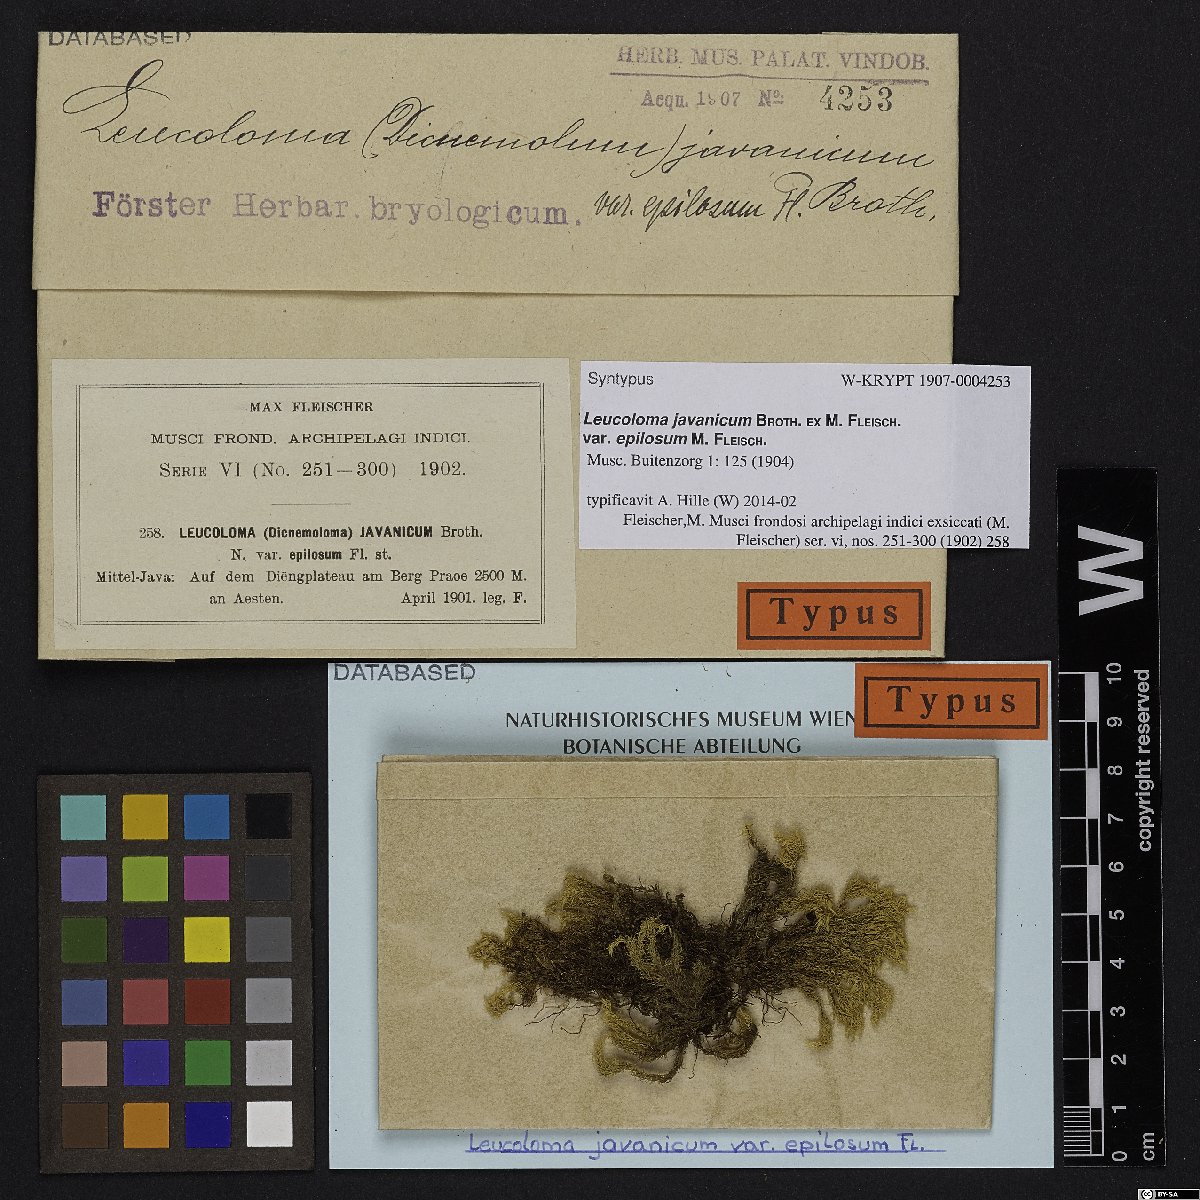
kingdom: Plantae
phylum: Bryophyta
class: Bryopsida
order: Dicranales
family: Dicranaceae
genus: Sclerodontium
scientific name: Sclerodontium pallidum
